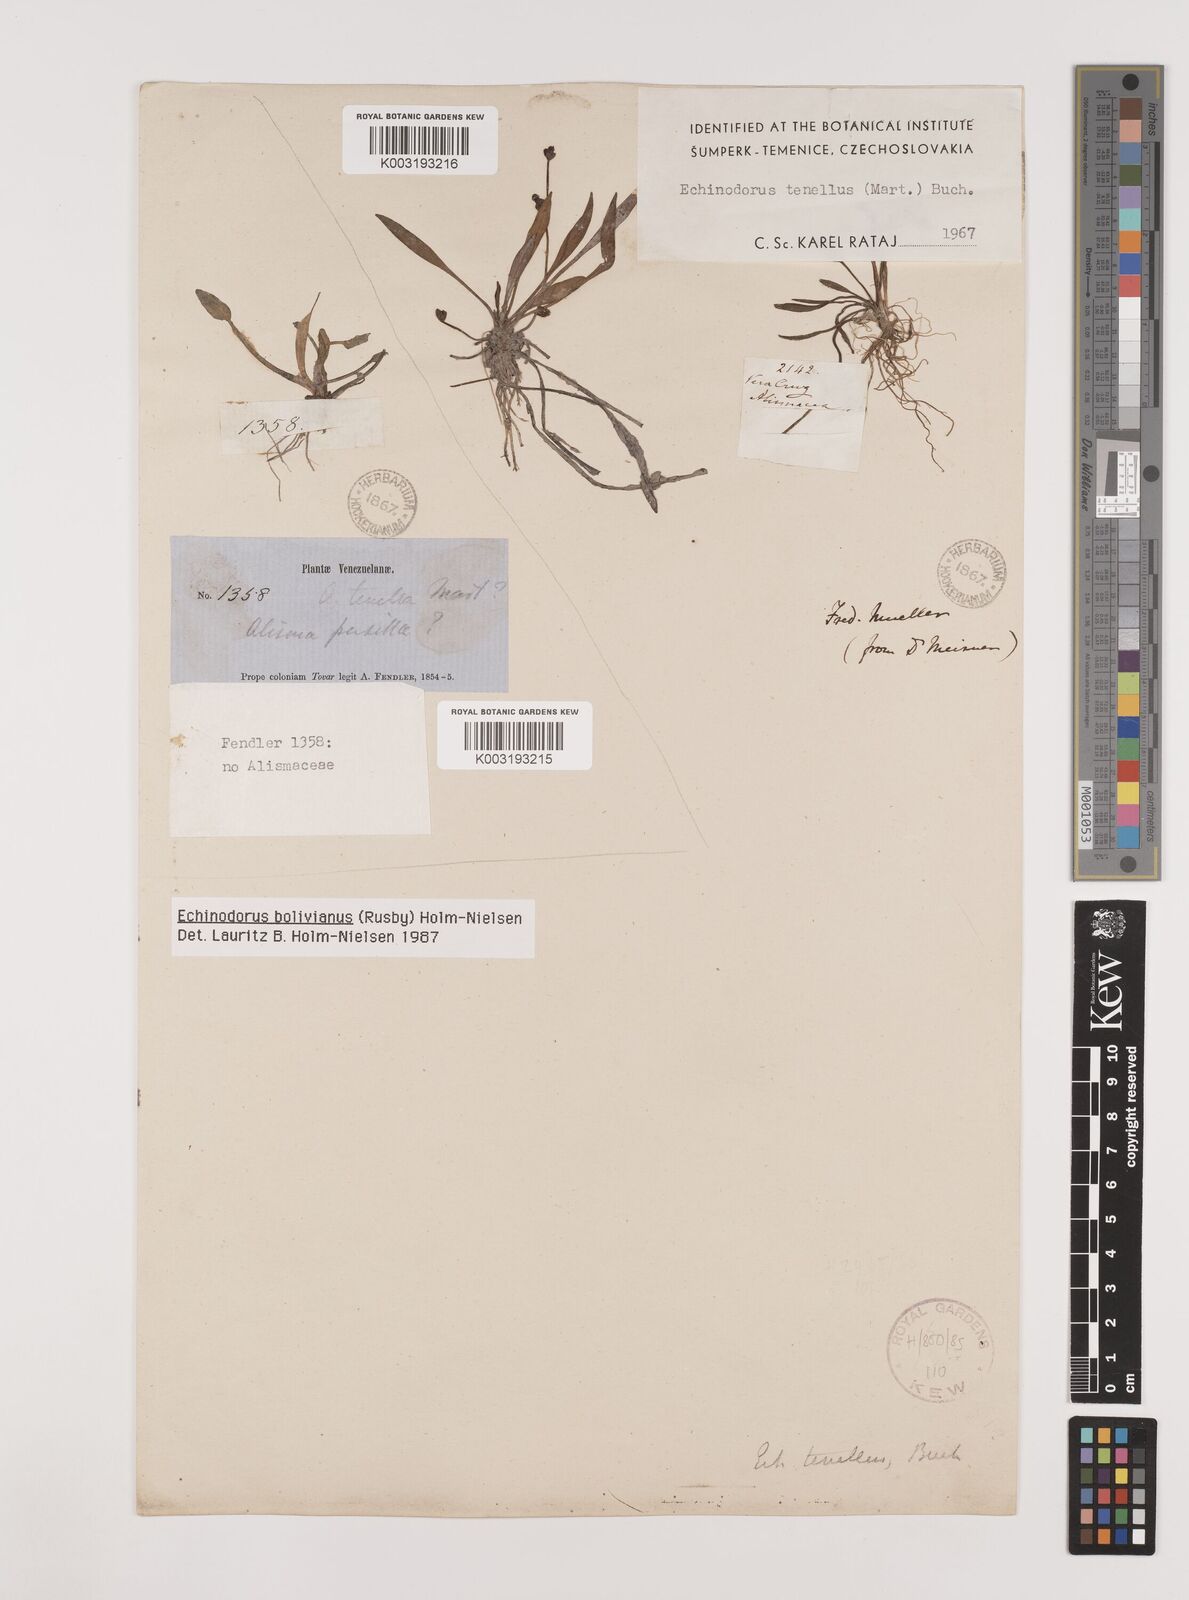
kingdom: Plantae
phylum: Tracheophyta
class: Liliopsida
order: Alismatales
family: Alismataceae
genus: Helanthium
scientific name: Helanthium bolivianum
